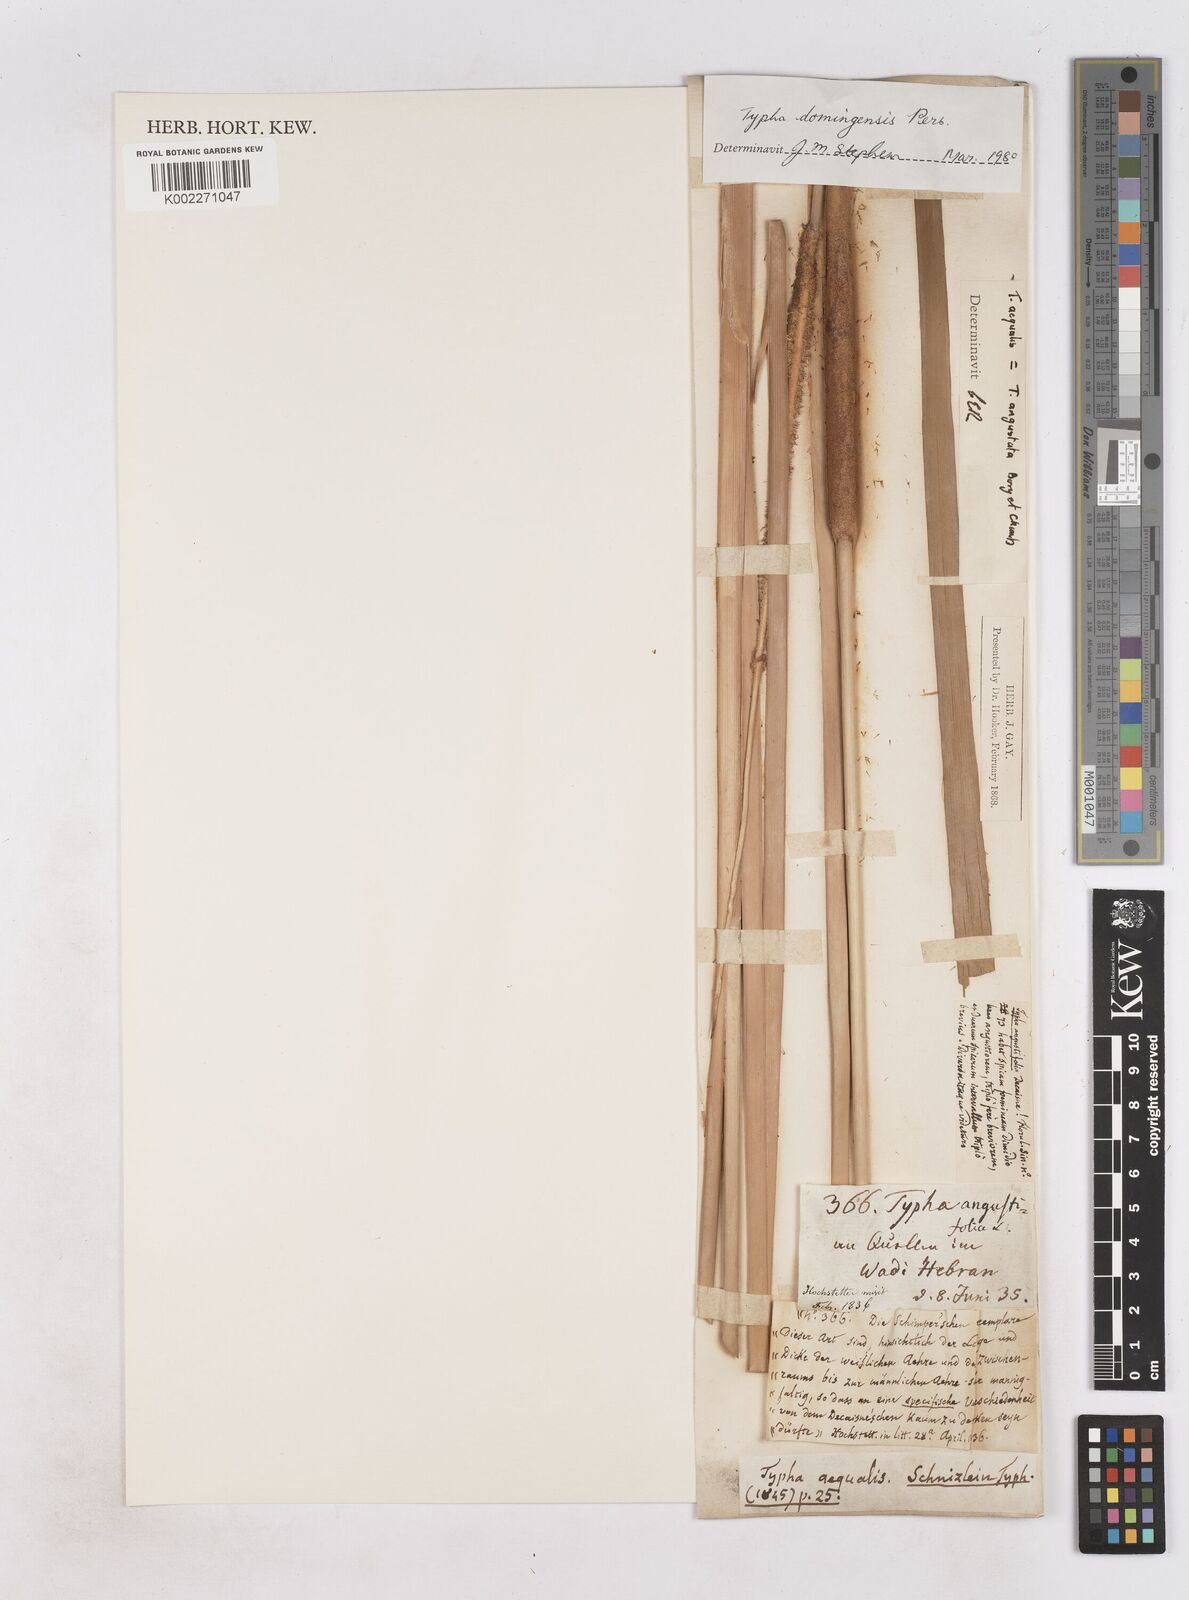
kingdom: Plantae
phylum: Tracheophyta
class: Liliopsida
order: Poales
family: Typhaceae
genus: Typha
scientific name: Typha domingensis
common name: Southern cattail
